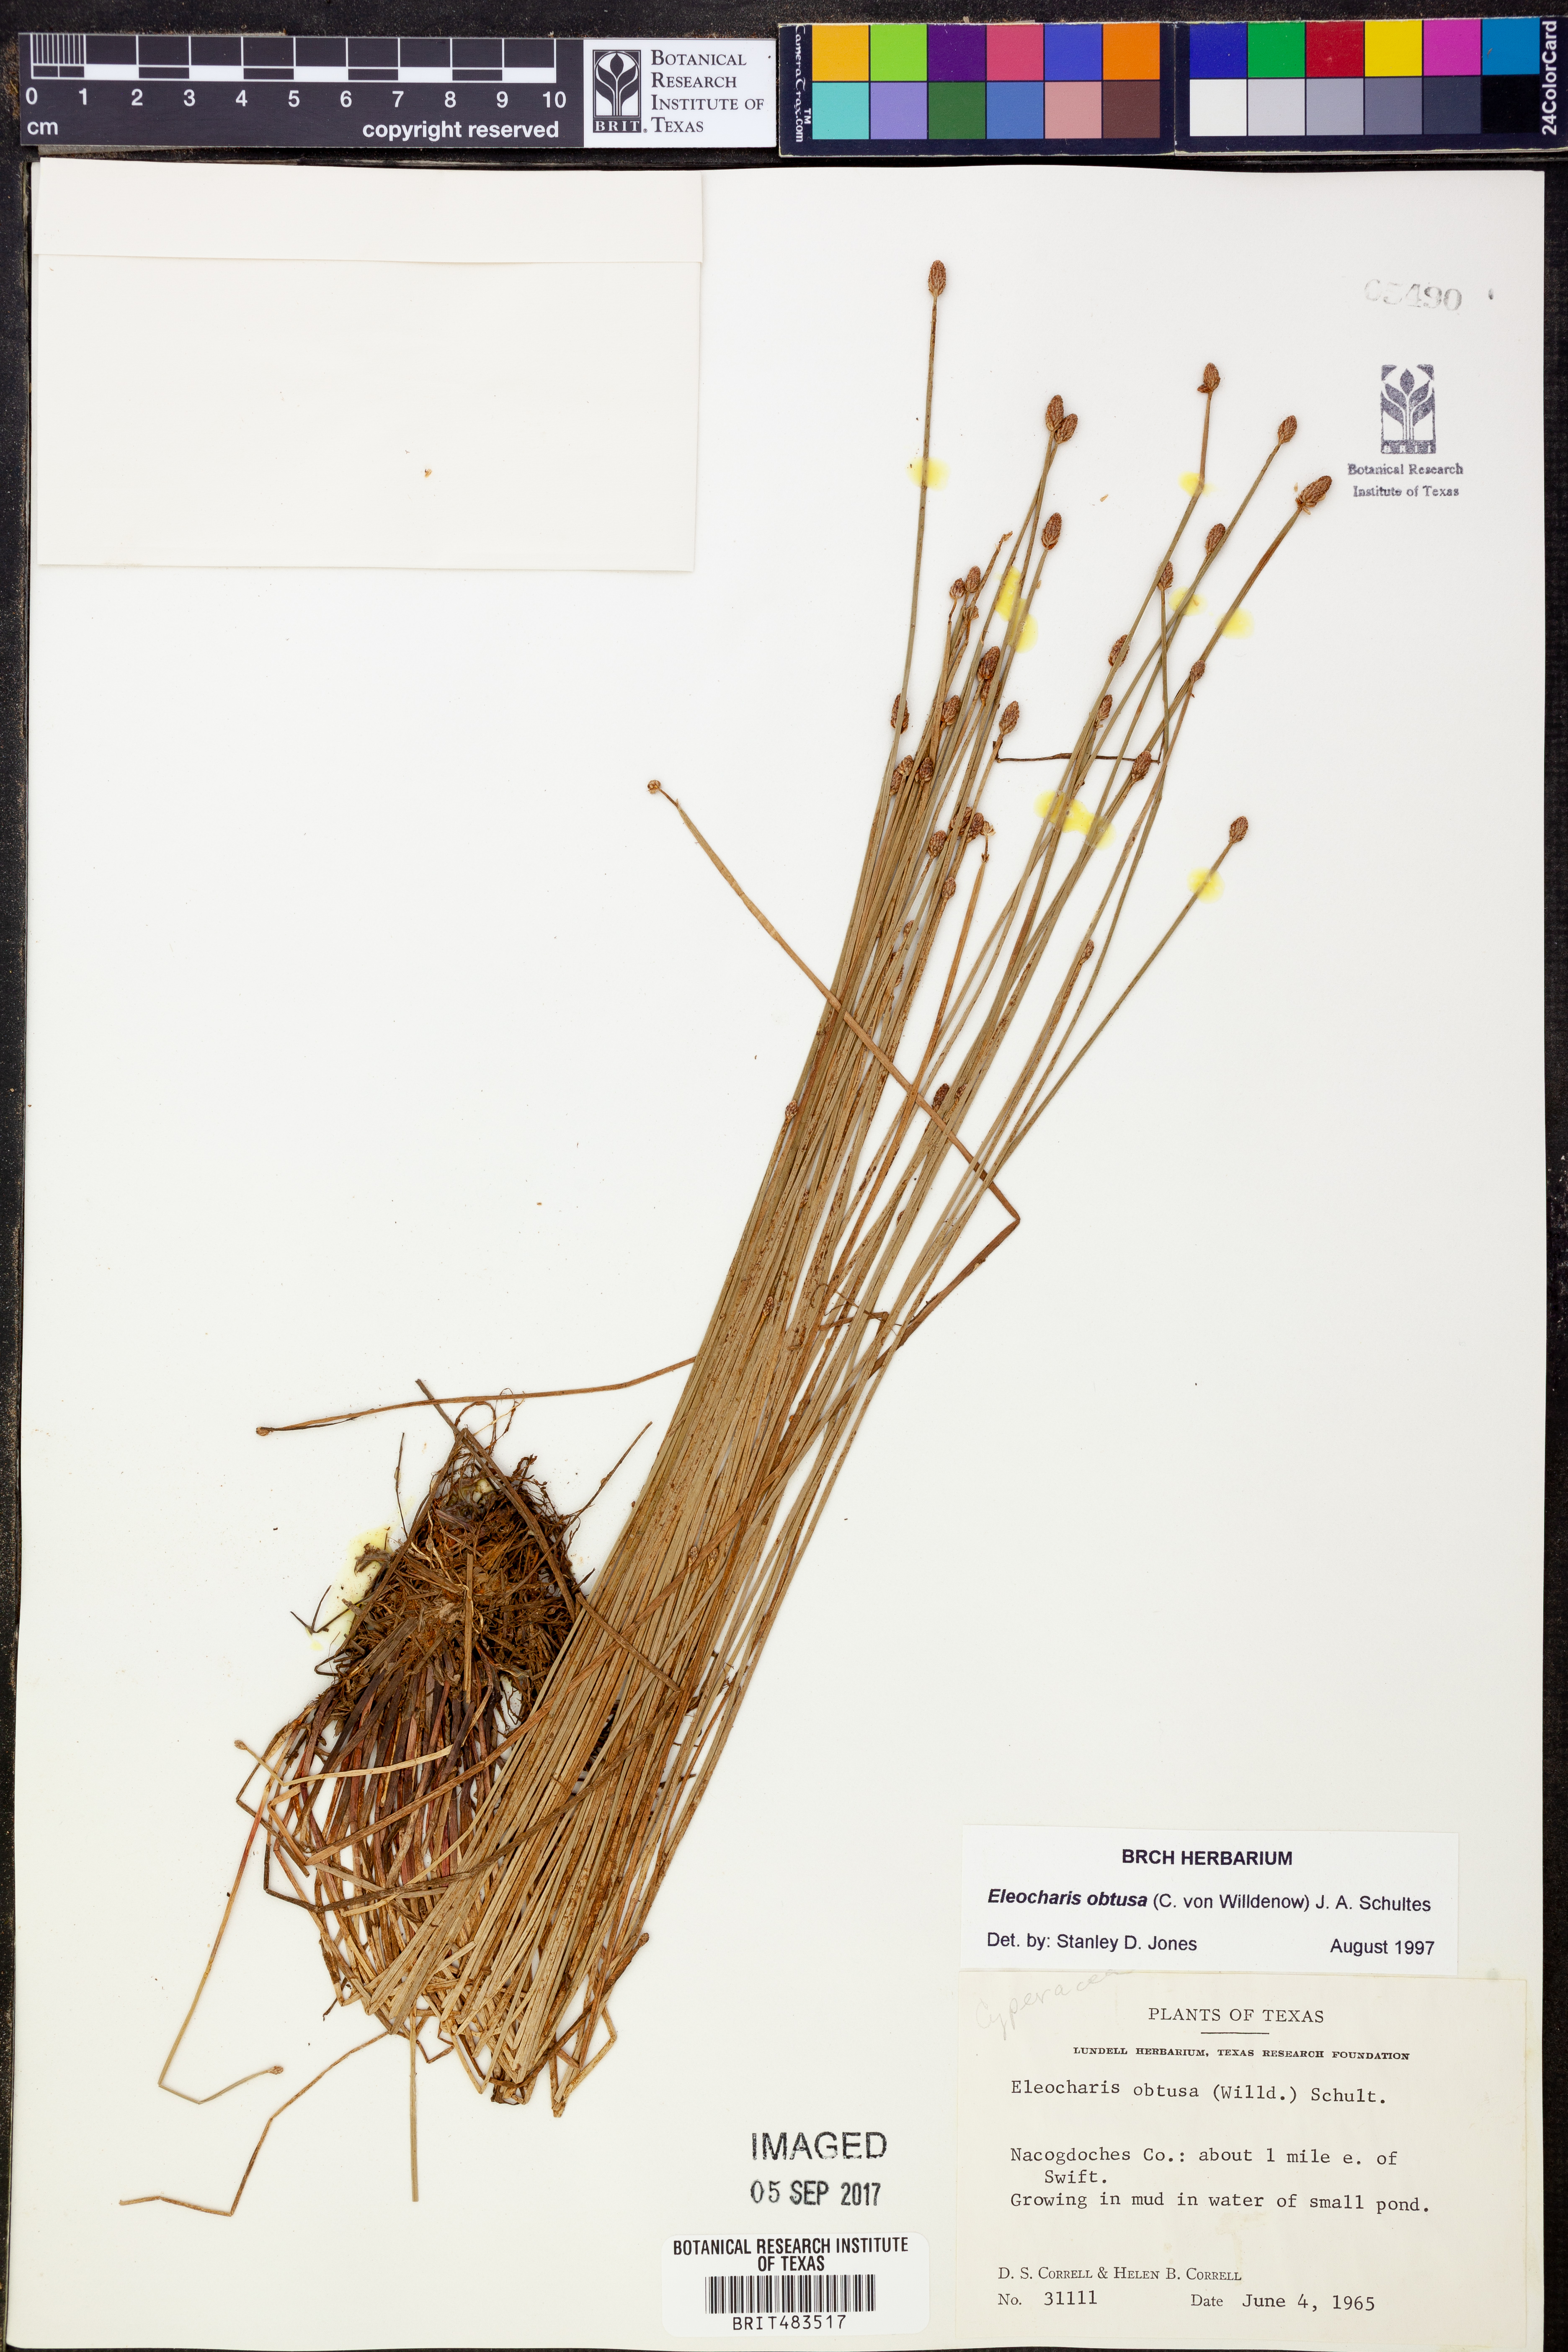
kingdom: Plantae
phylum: Tracheophyta
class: Liliopsida
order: Poales
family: Cyperaceae
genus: Eleocharis
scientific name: Eleocharis obtusa
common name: Blunt spikerush
